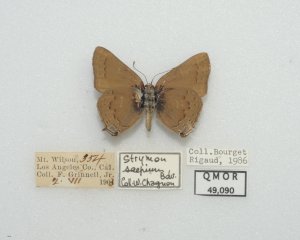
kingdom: Animalia
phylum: Arthropoda
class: Insecta
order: Lepidoptera
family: Lycaenidae
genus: Strymon
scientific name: Strymon saepium
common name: Hedgerow Hairstreak
